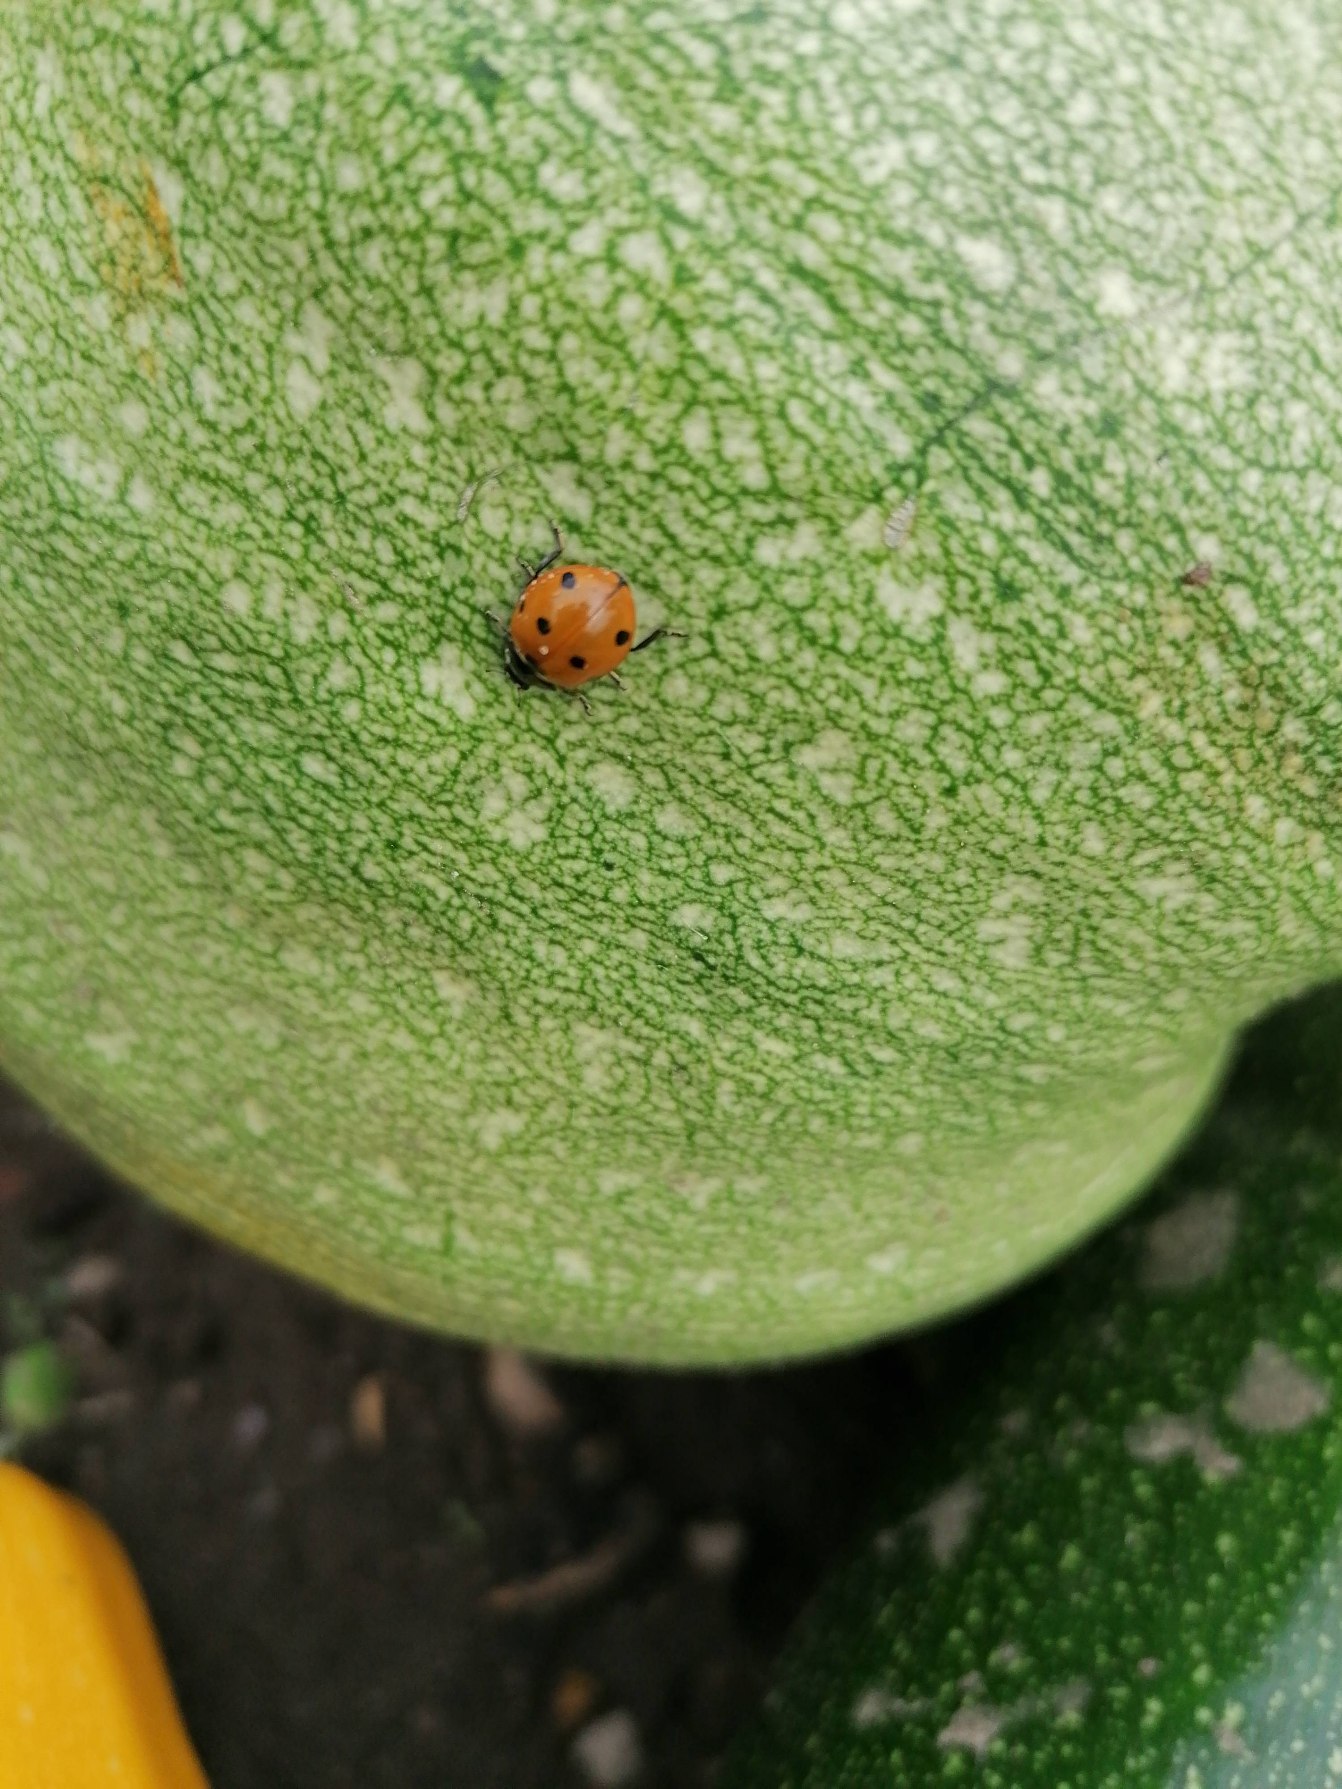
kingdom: Animalia
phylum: Arthropoda
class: Insecta
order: Coleoptera
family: Coccinellidae
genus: Coccinella
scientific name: Coccinella septempunctata
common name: Syvplettet mariehøne
